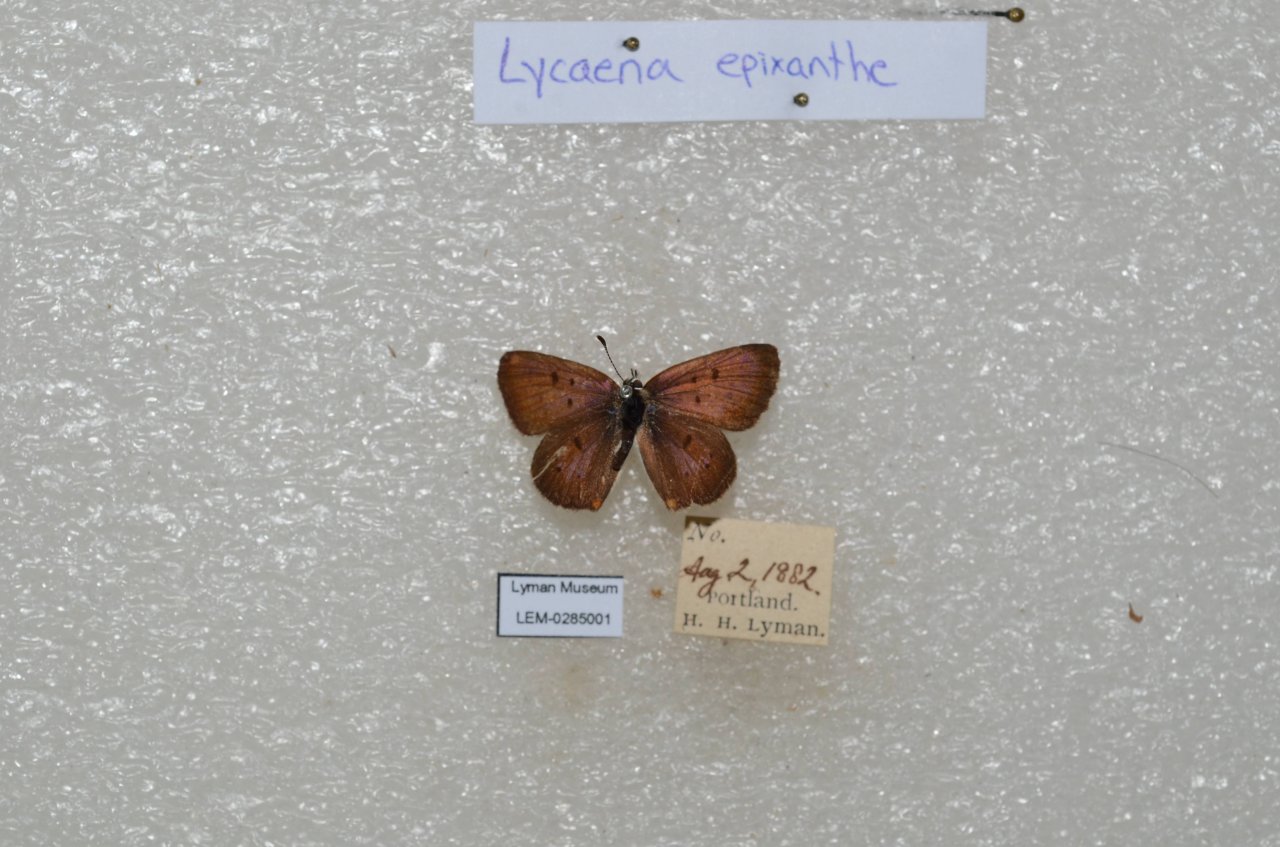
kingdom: Animalia
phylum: Arthropoda
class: Insecta
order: Lepidoptera
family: Sesiidae
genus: Sesia
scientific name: Sesia Lycaena epixanthe
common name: Bog Copper
